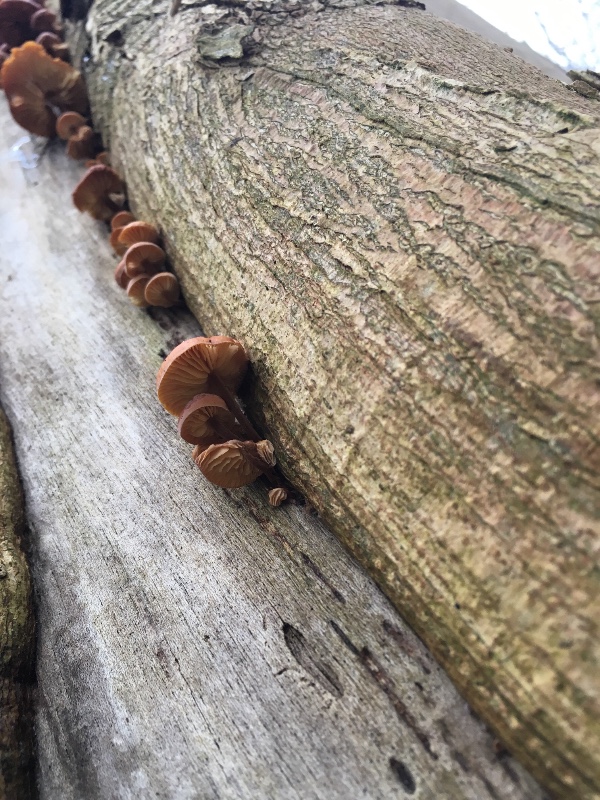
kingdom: Fungi
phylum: Basidiomycota
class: Agaricomycetes
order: Agaricales
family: Physalacriaceae
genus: Flammulina
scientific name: Flammulina velutipes
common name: gul fløjlsfod
